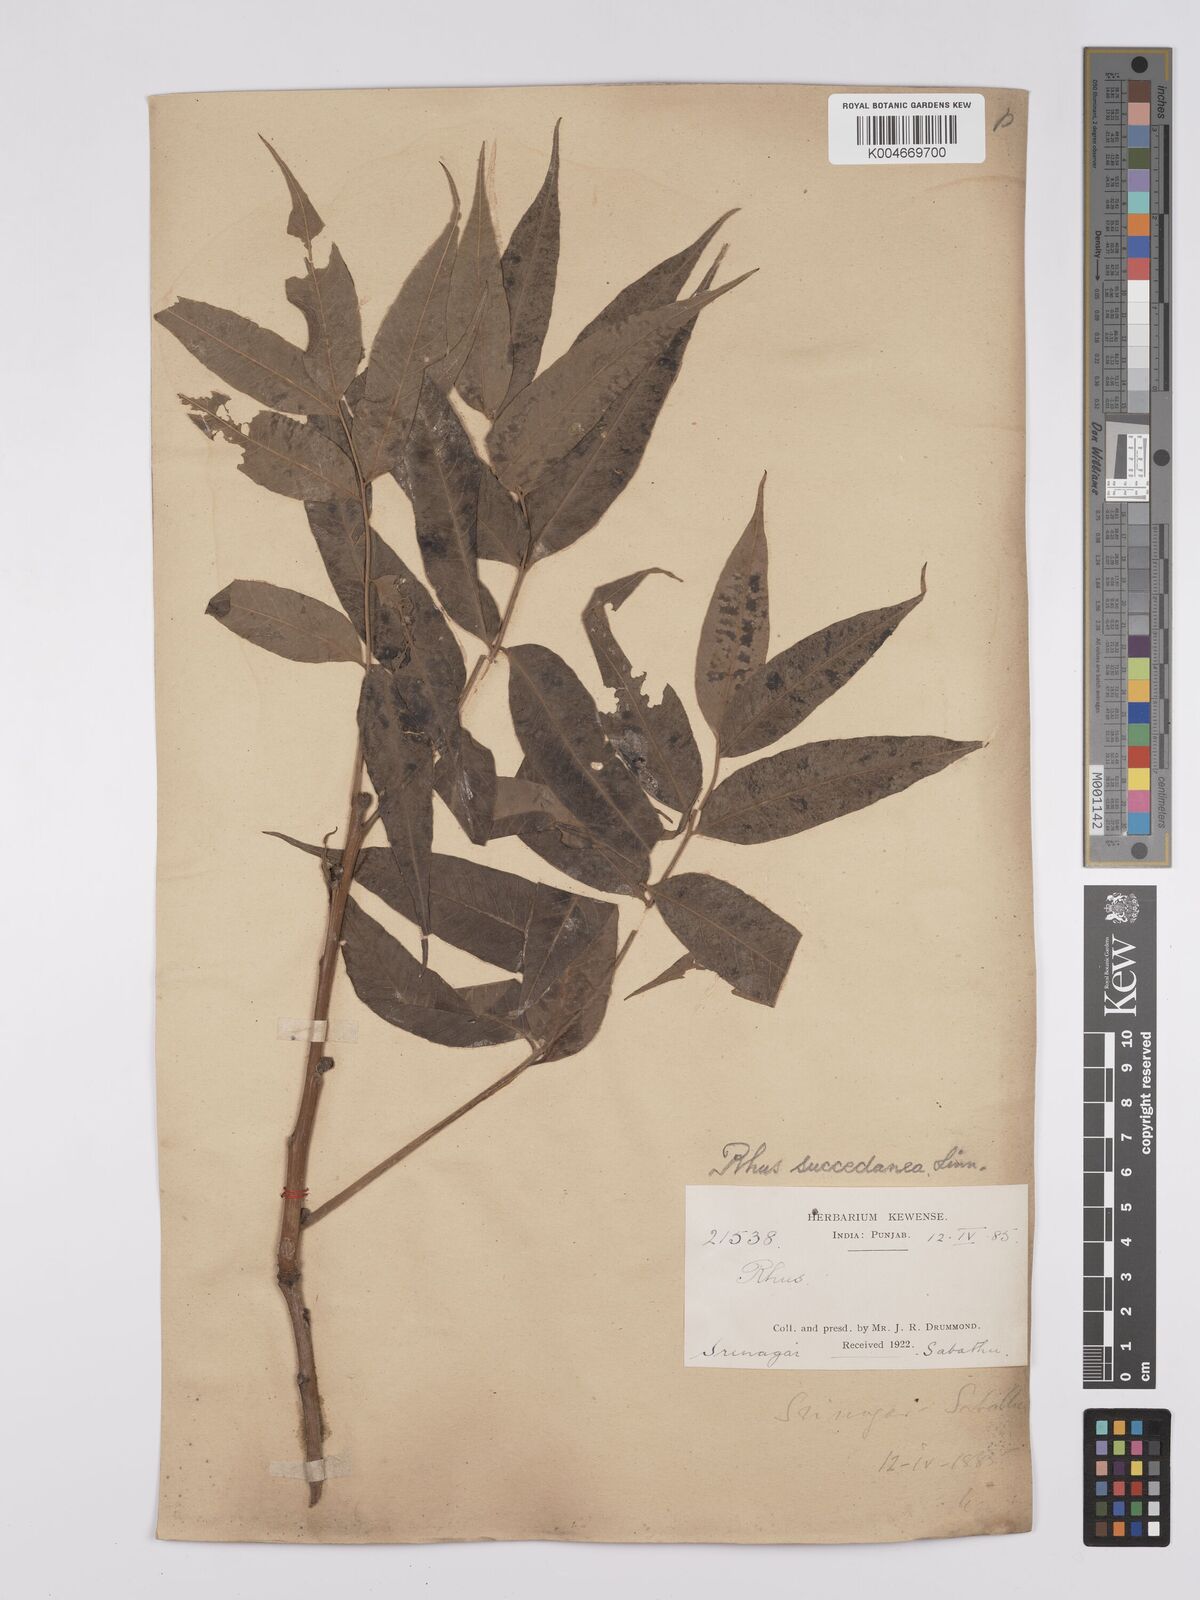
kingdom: Plantae
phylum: Tracheophyta
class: Magnoliopsida
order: Sapindales
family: Anacardiaceae
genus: Toxicodendron
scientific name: Toxicodendron succedaneum
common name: Wax tree
